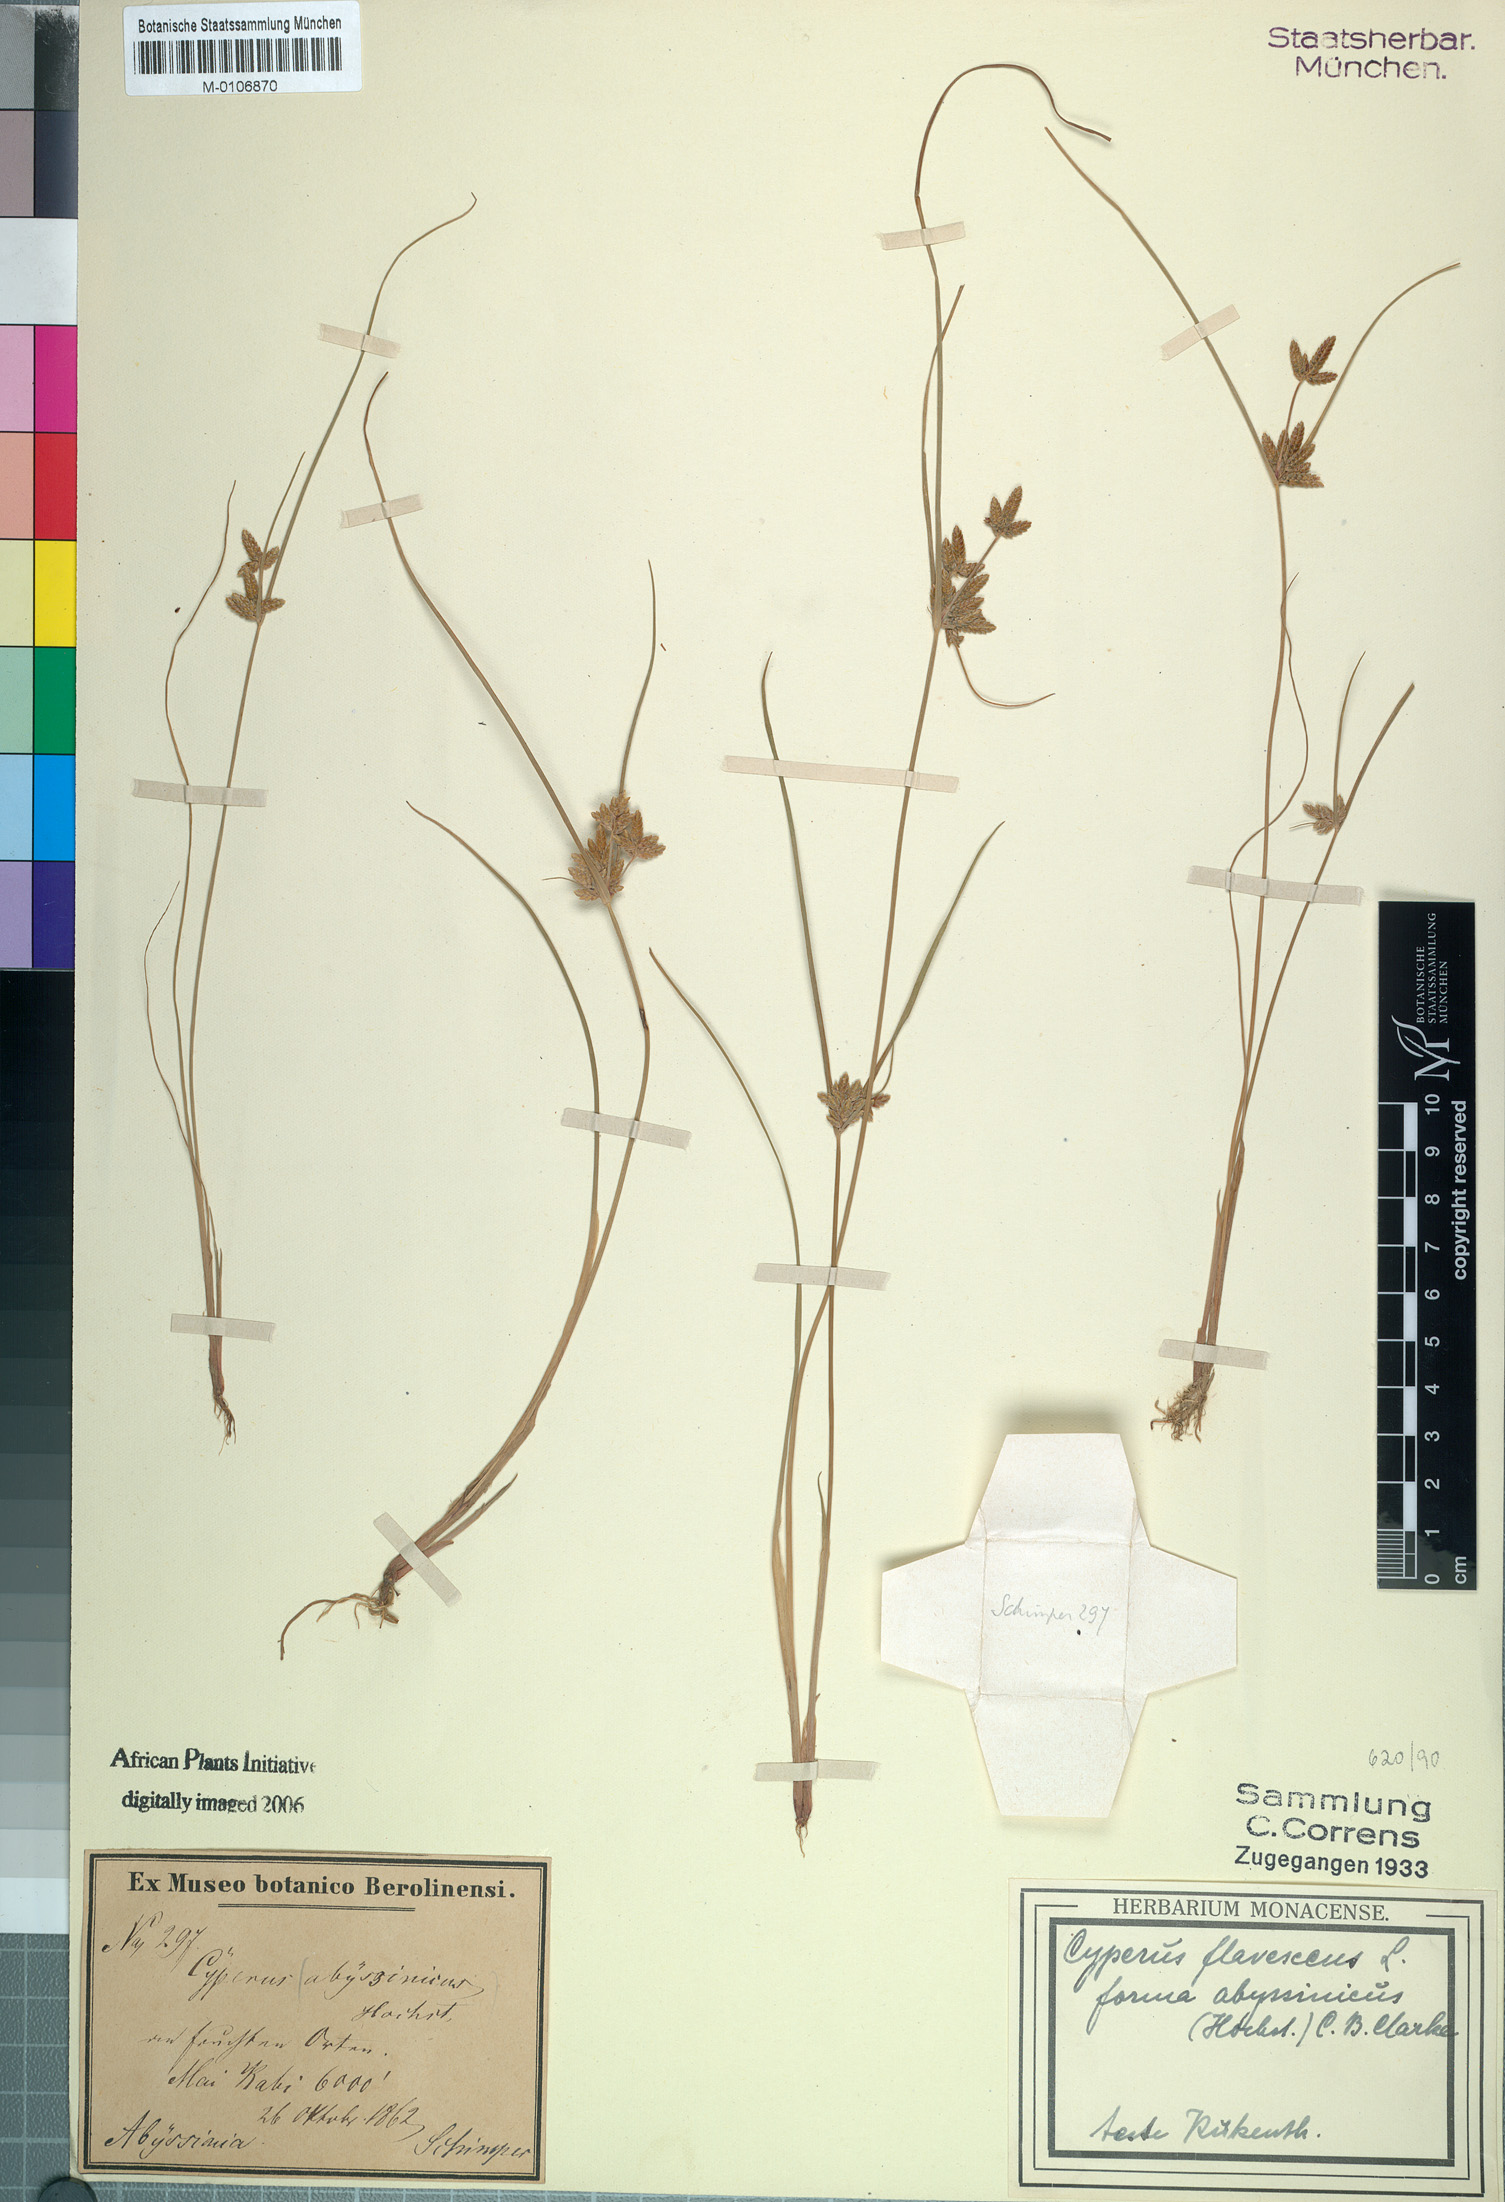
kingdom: Plantae
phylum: Tracheophyta
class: Liliopsida
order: Poales
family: Cyperaceae
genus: Cyperus
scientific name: Cyperus flavescens
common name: Yellow galingale
